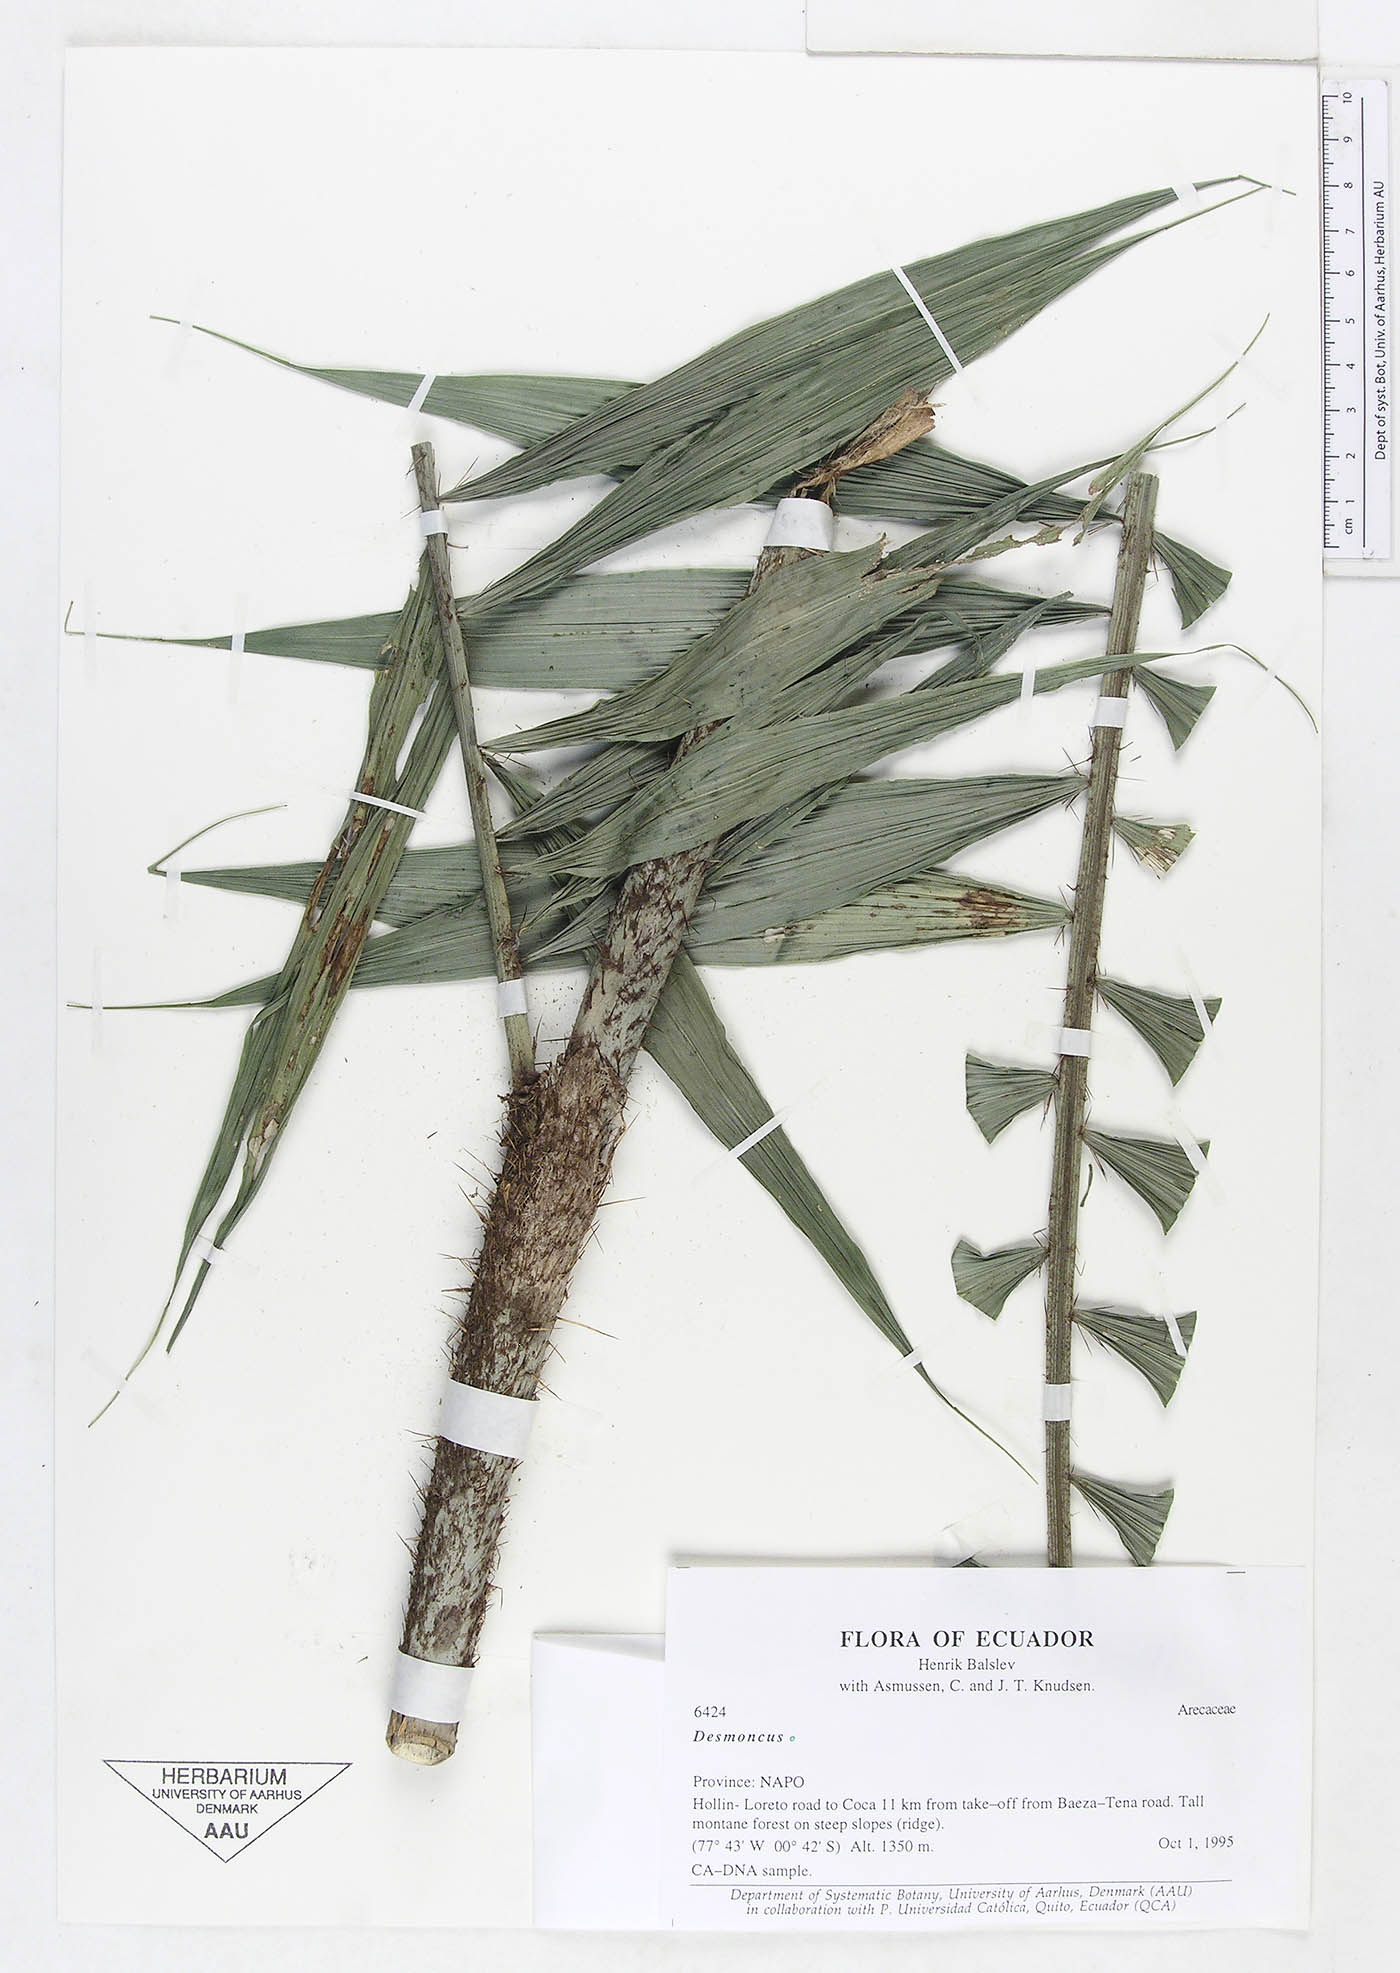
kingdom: Plantae
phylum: Tracheophyta
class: Liliopsida
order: Arecales
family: Arecaceae
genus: Desmoncus
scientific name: Desmoncus
